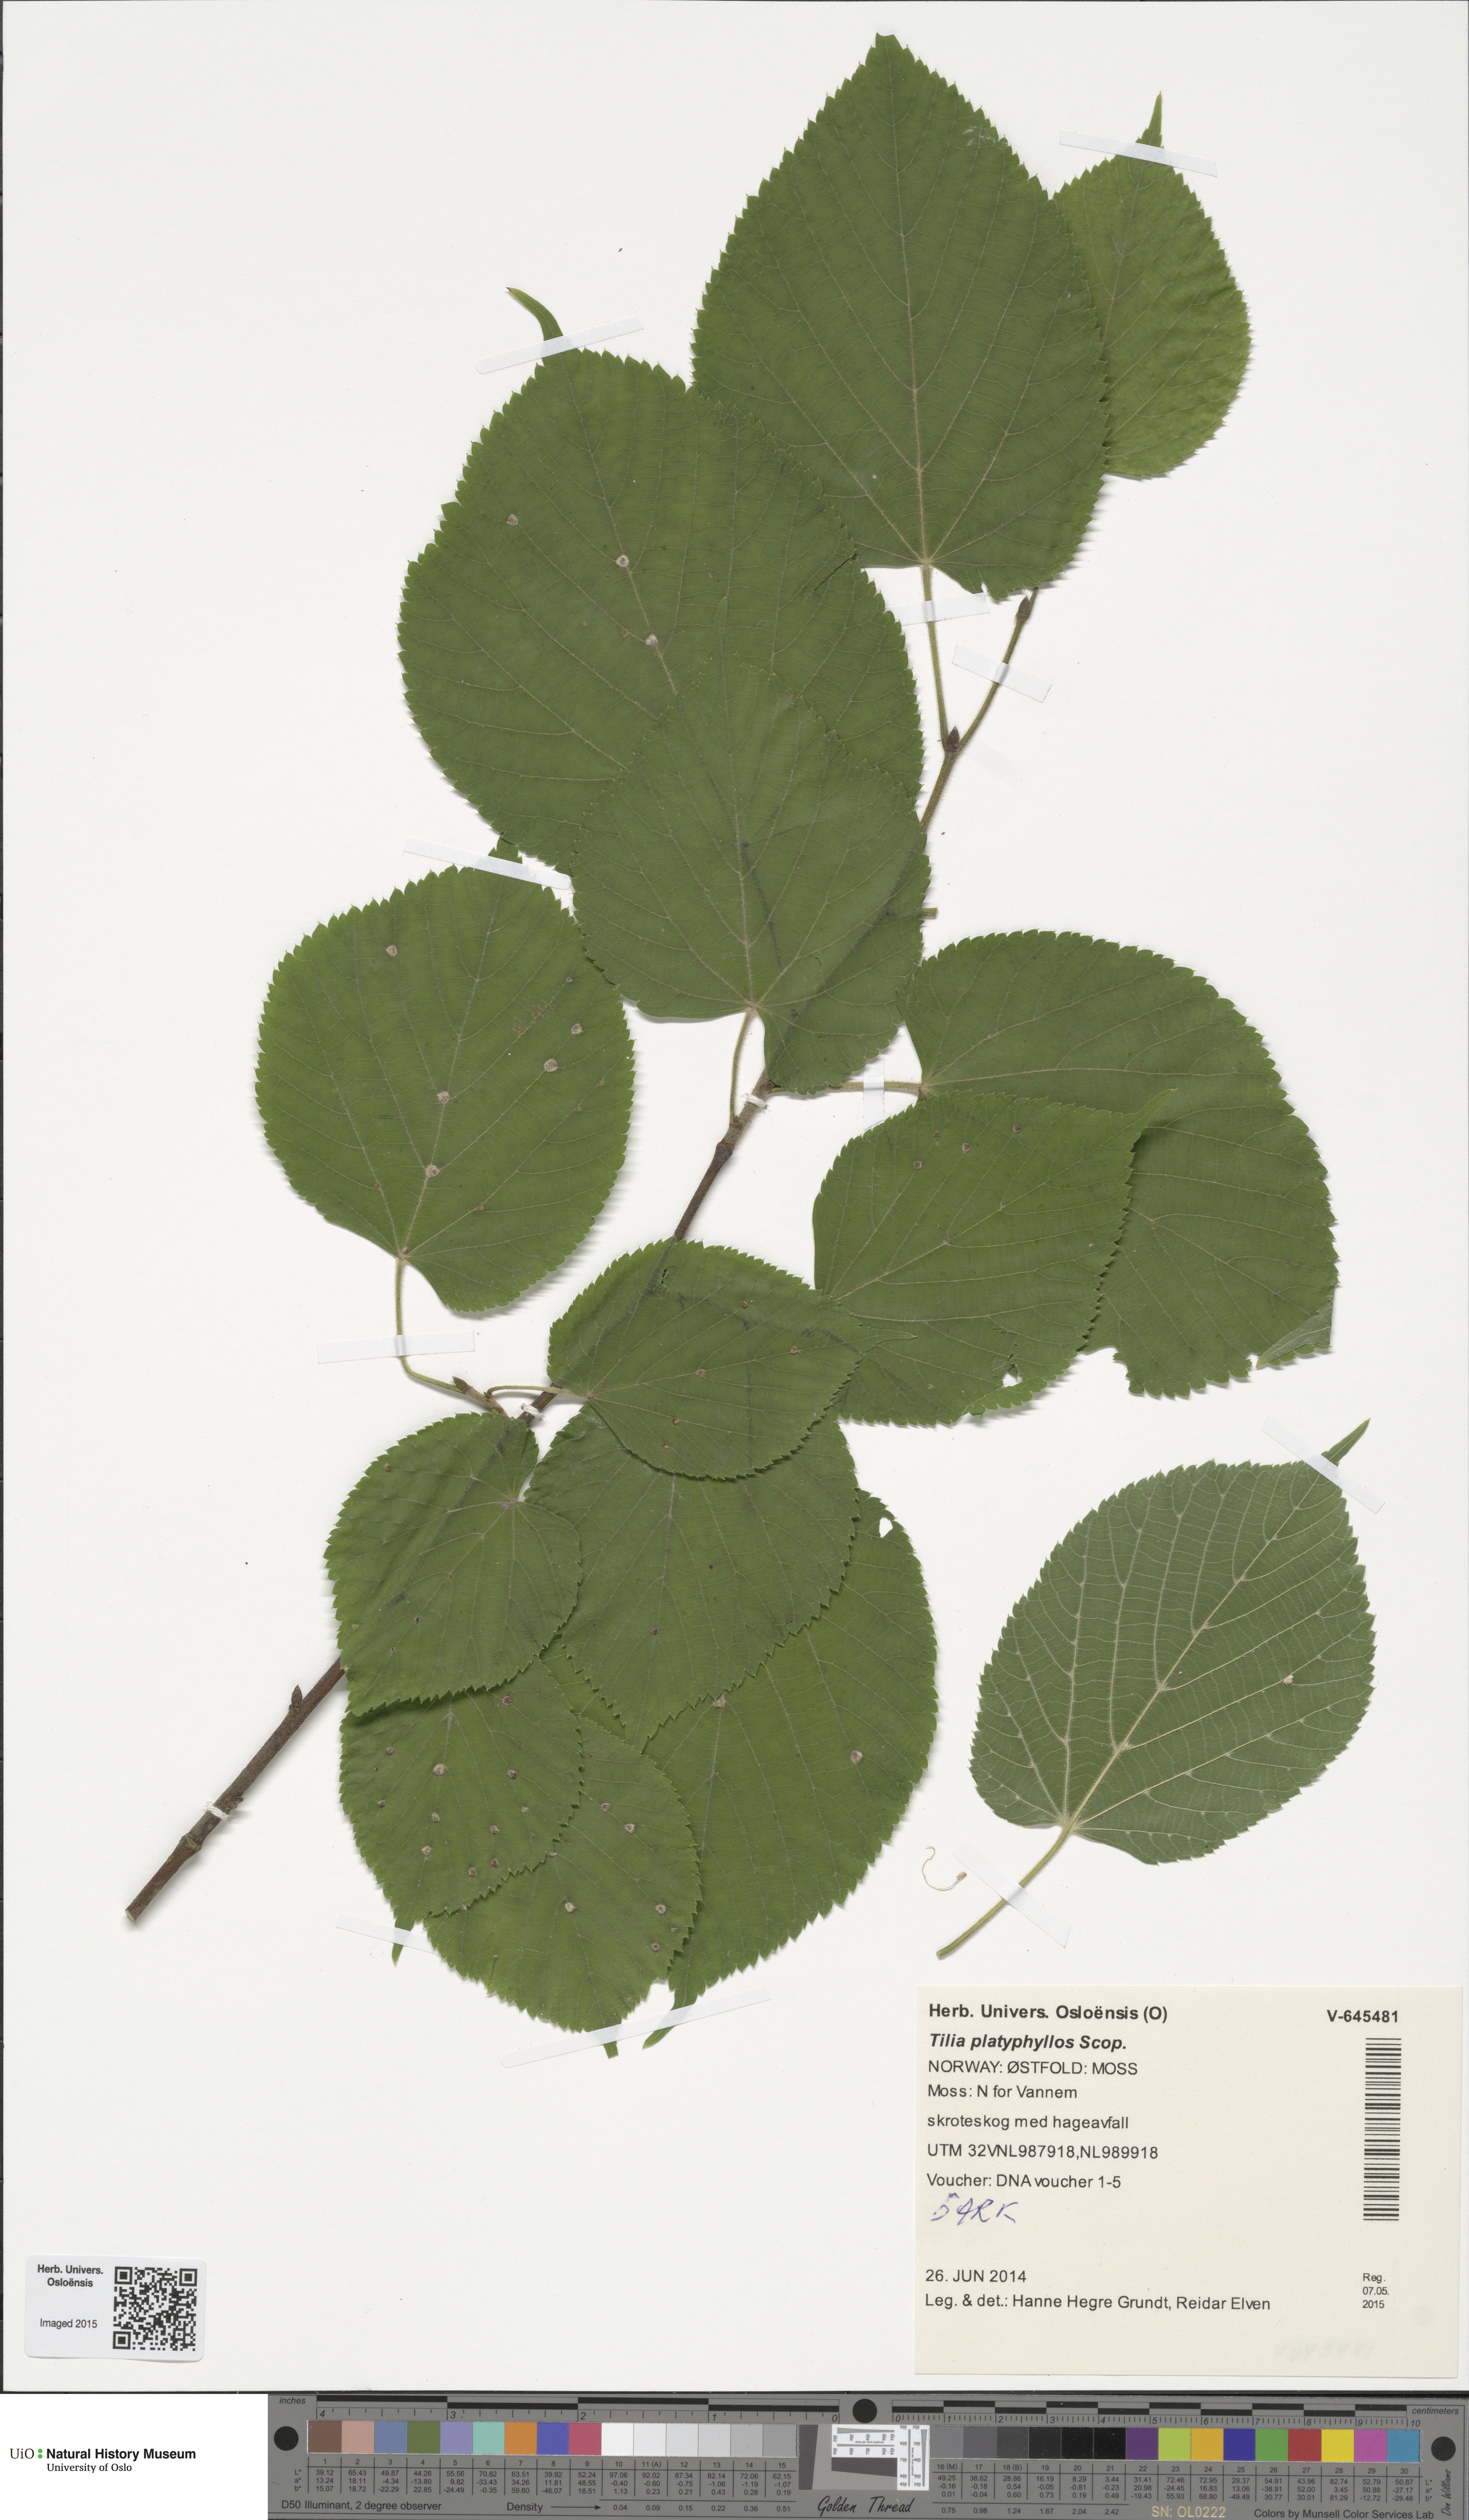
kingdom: Plantae
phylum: Tracheophyta
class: Magnoliopsida
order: Malvales
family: Malvaceae
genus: Tilia
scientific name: Tilia platyphyllos
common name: Large-leaved lime
